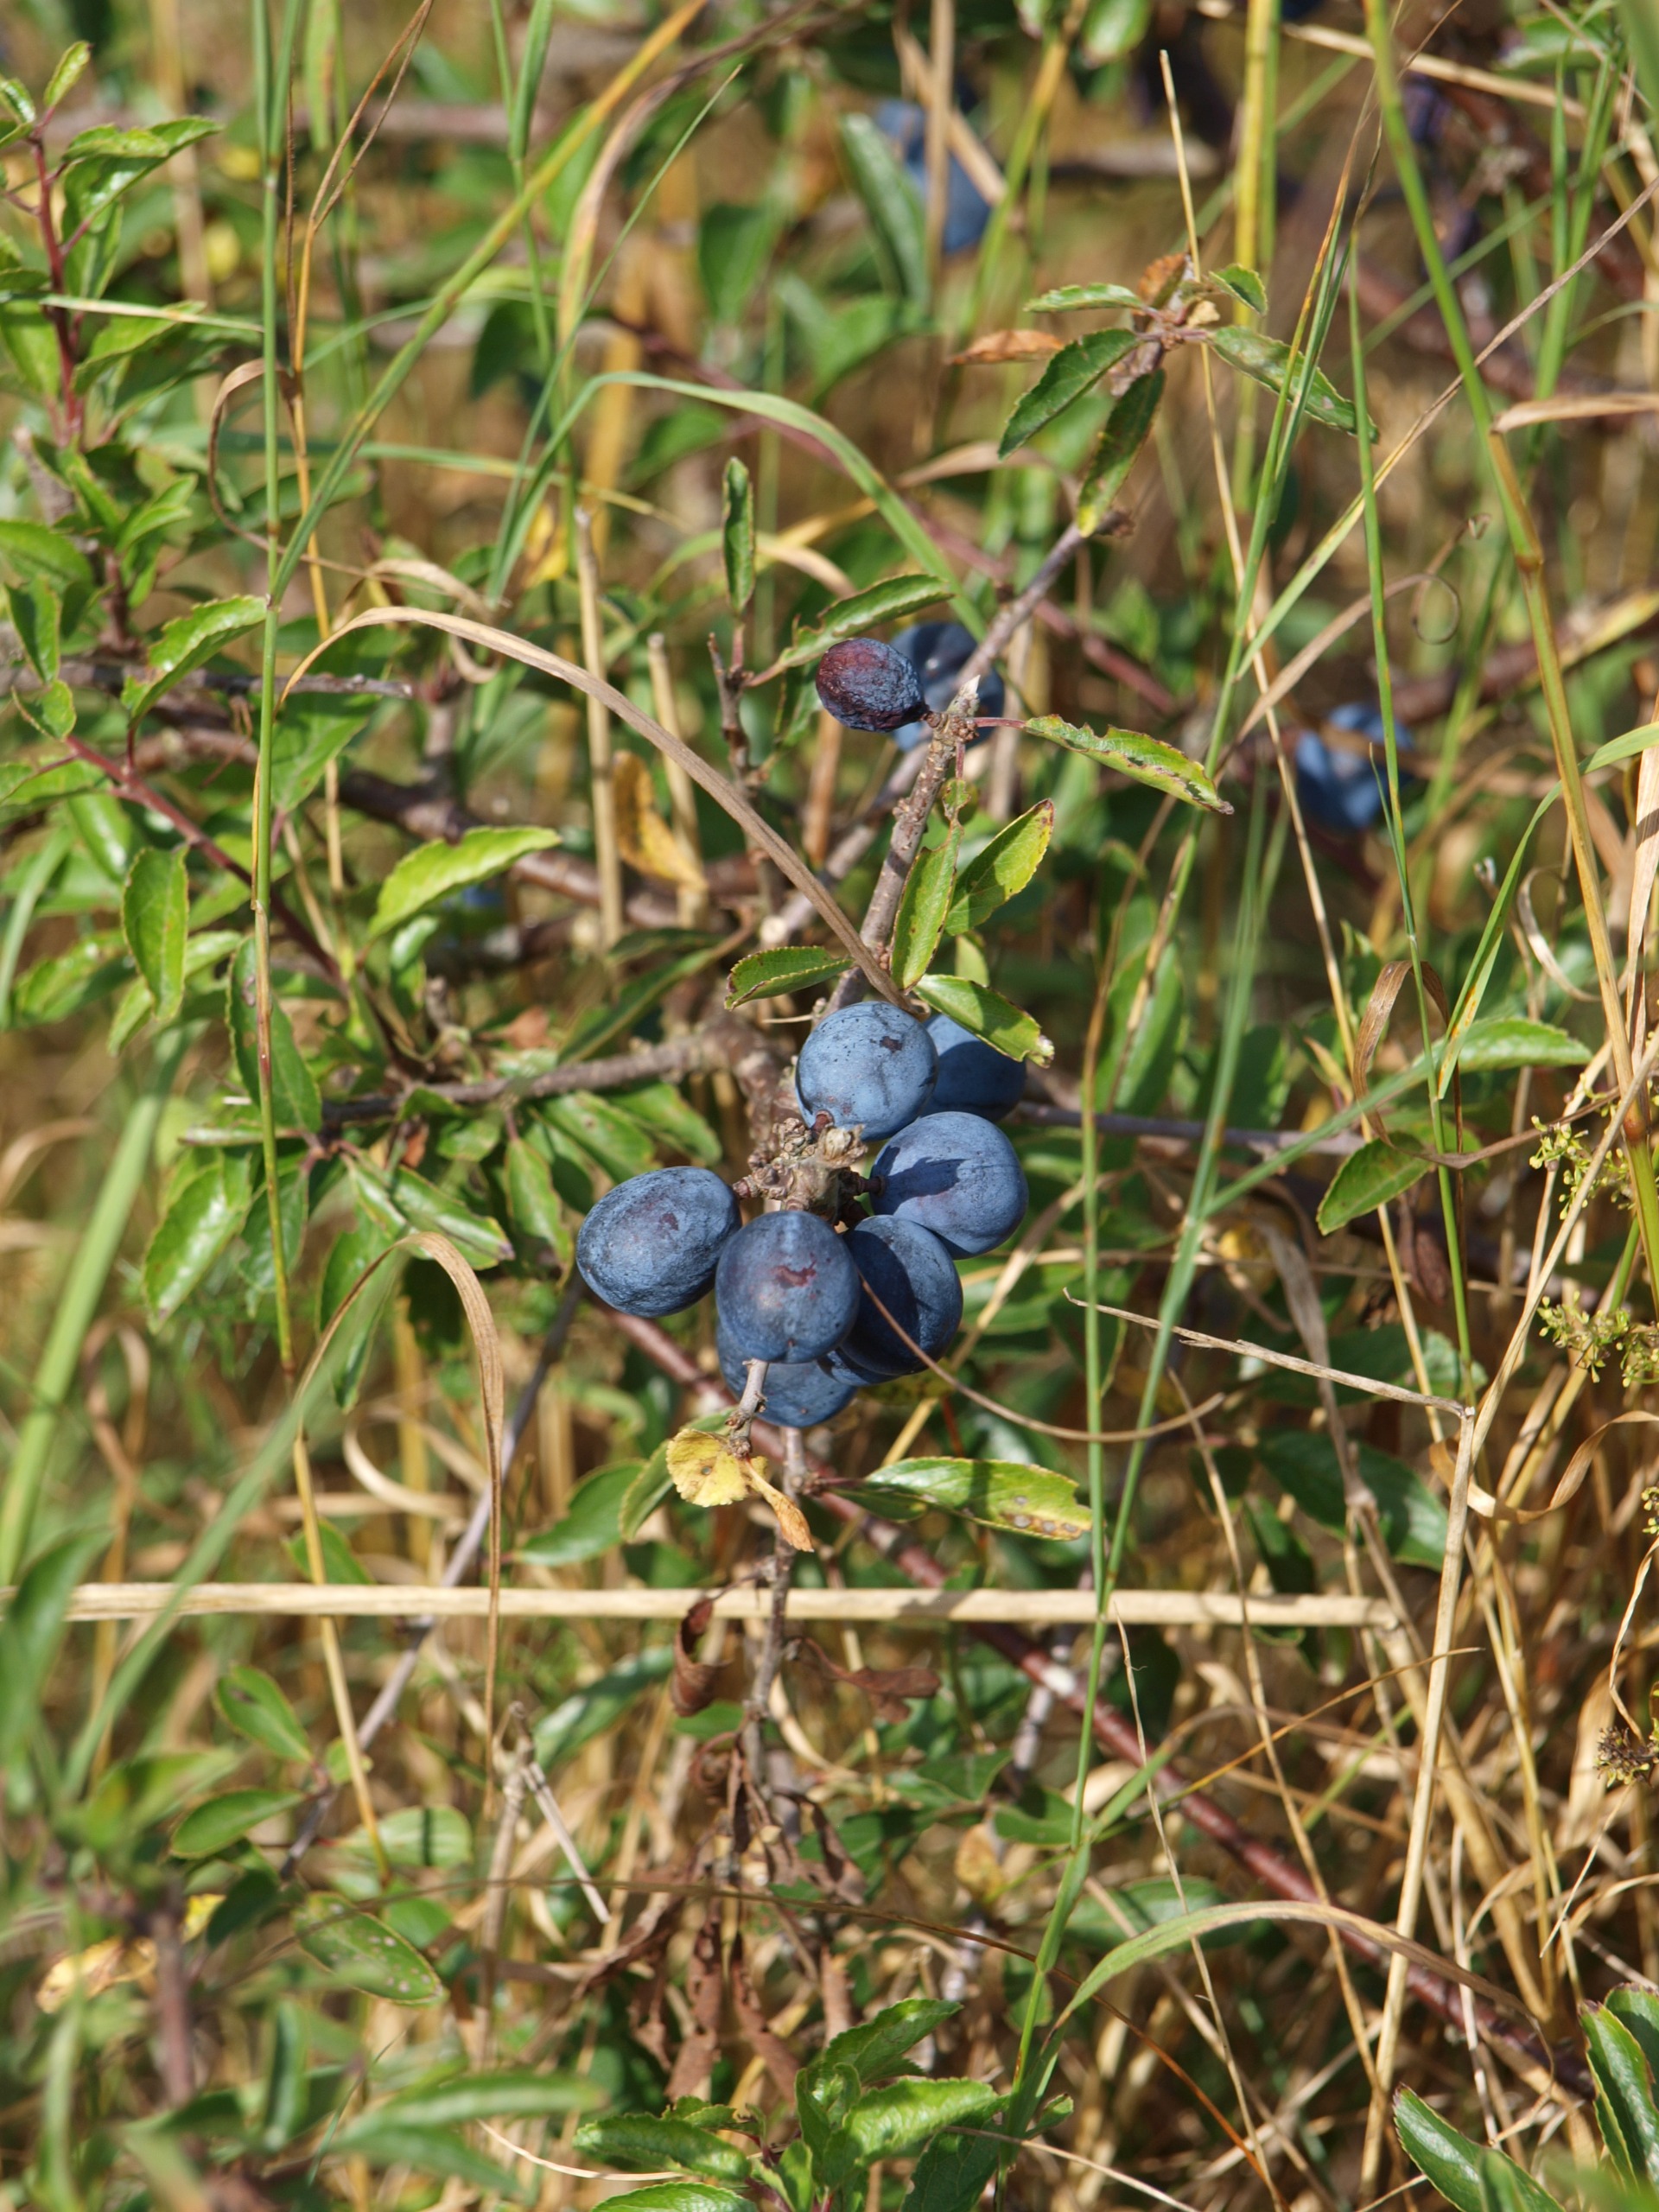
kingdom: Plantae
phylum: Tracheophyta
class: Magnoliopsida
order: Rosales
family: Rosaceae
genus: Prunus
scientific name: Prunus spinosa
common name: Slåen
